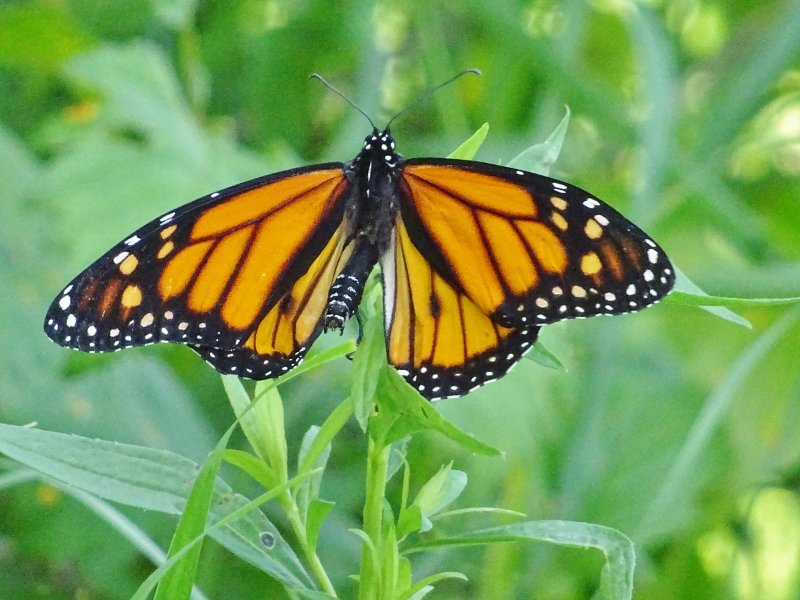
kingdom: Animalia
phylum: Arthropoda
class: Insecta
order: Lepidoptera
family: Nymphalidae
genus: Danaus
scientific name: Danaus plexippus
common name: Monarch
